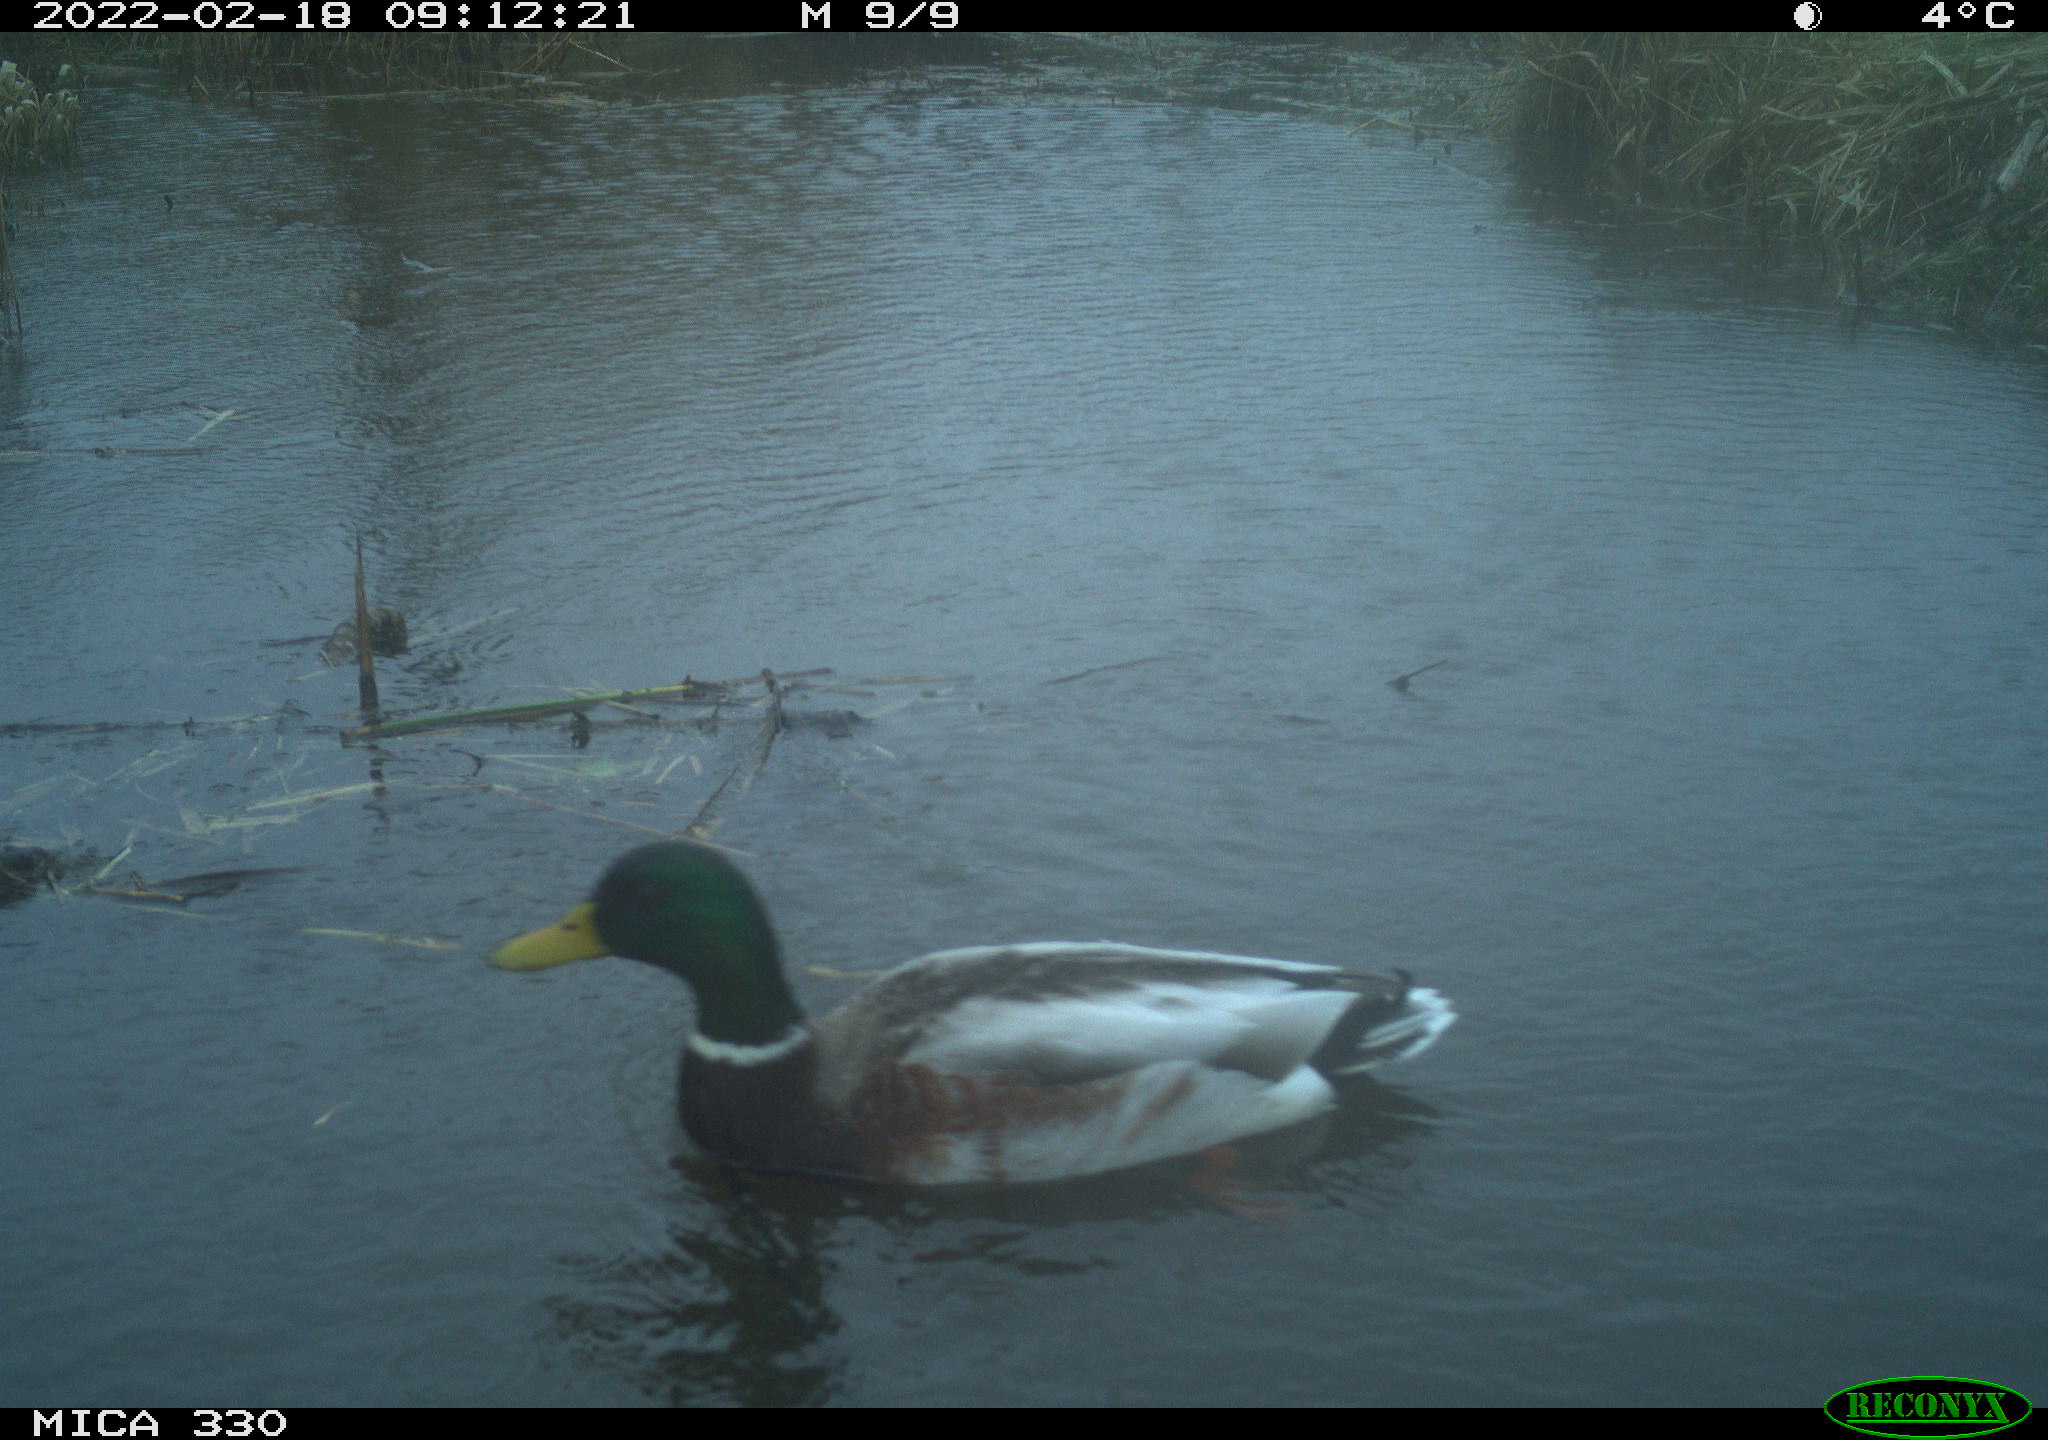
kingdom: Animalia
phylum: Chordata
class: Aves
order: Anseriformes
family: Anatidae
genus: Anas
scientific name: Anas platyrhynchos
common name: Mallard
